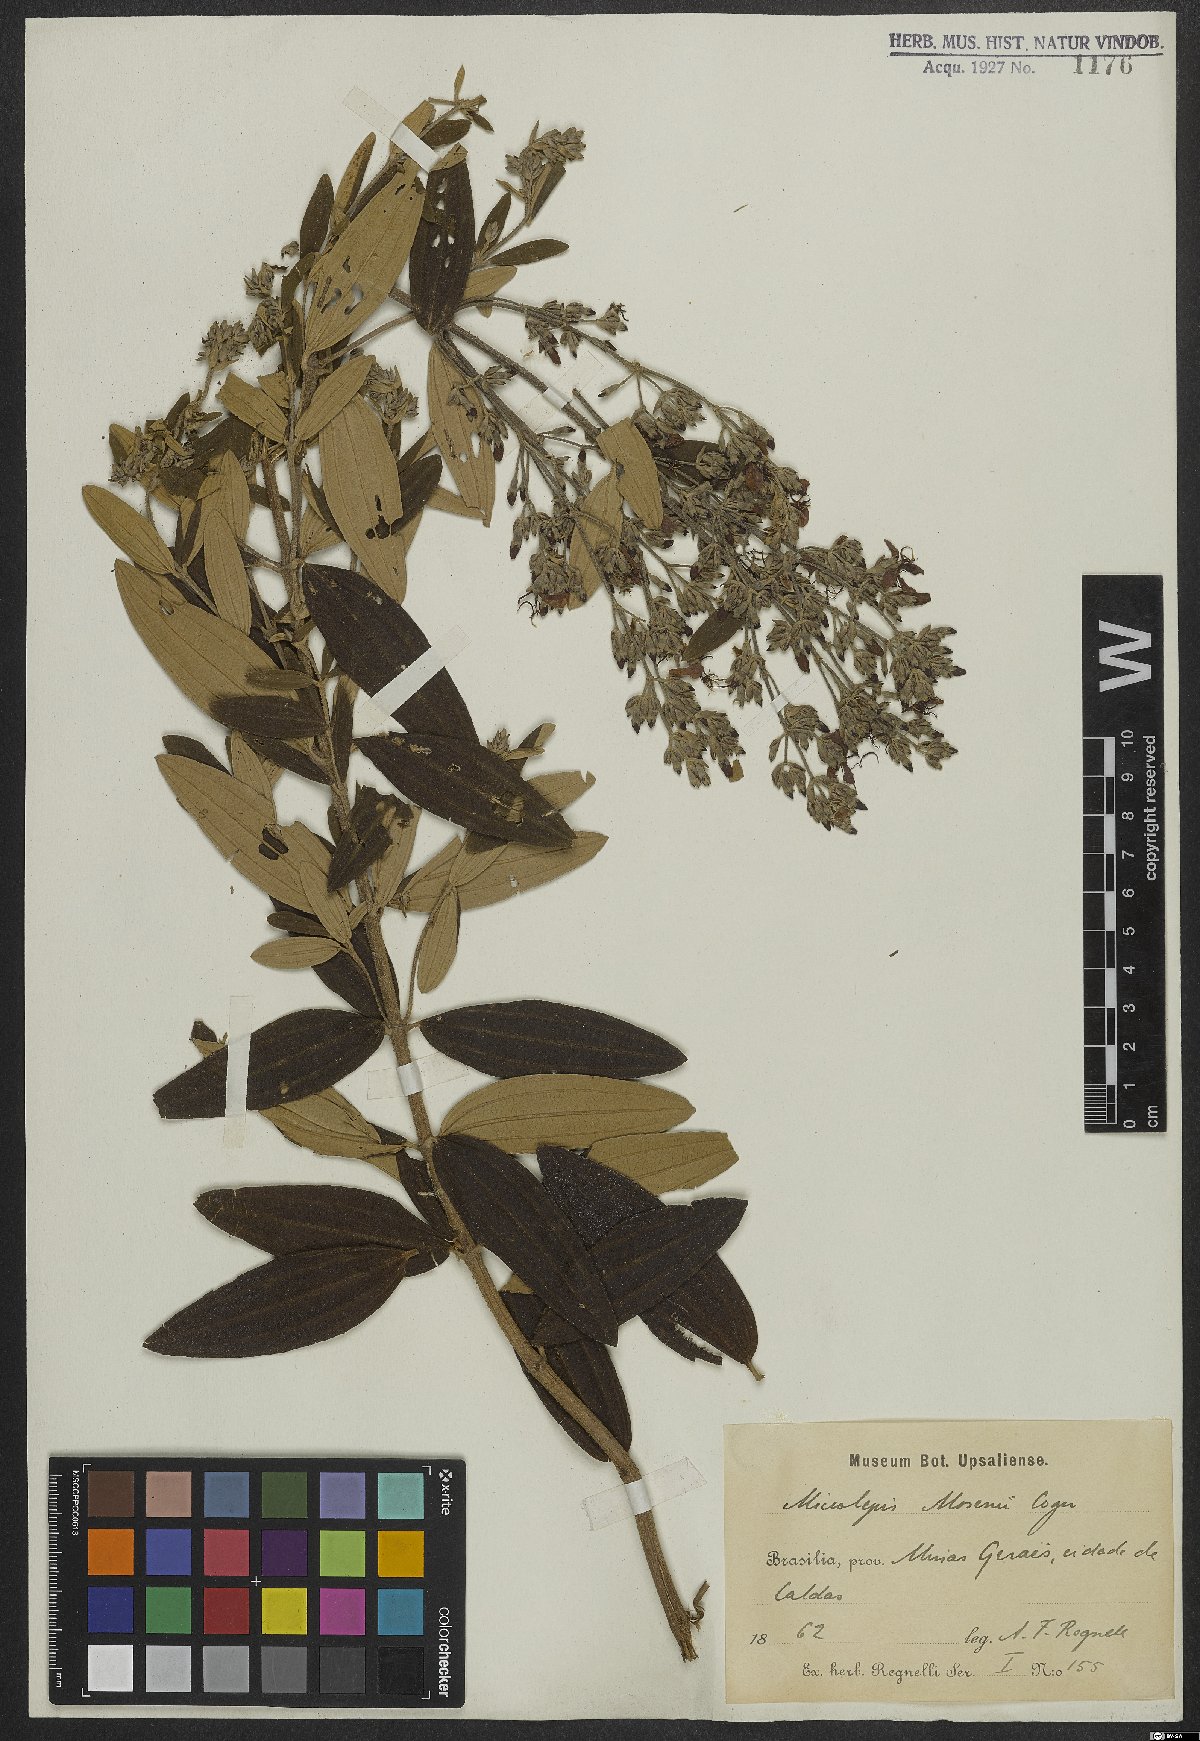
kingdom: Plantae
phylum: Tracheophyta
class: Magnoliopsida
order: Myrtales
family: Melastomataceae
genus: Pleroma
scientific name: Pleroma kleinii
